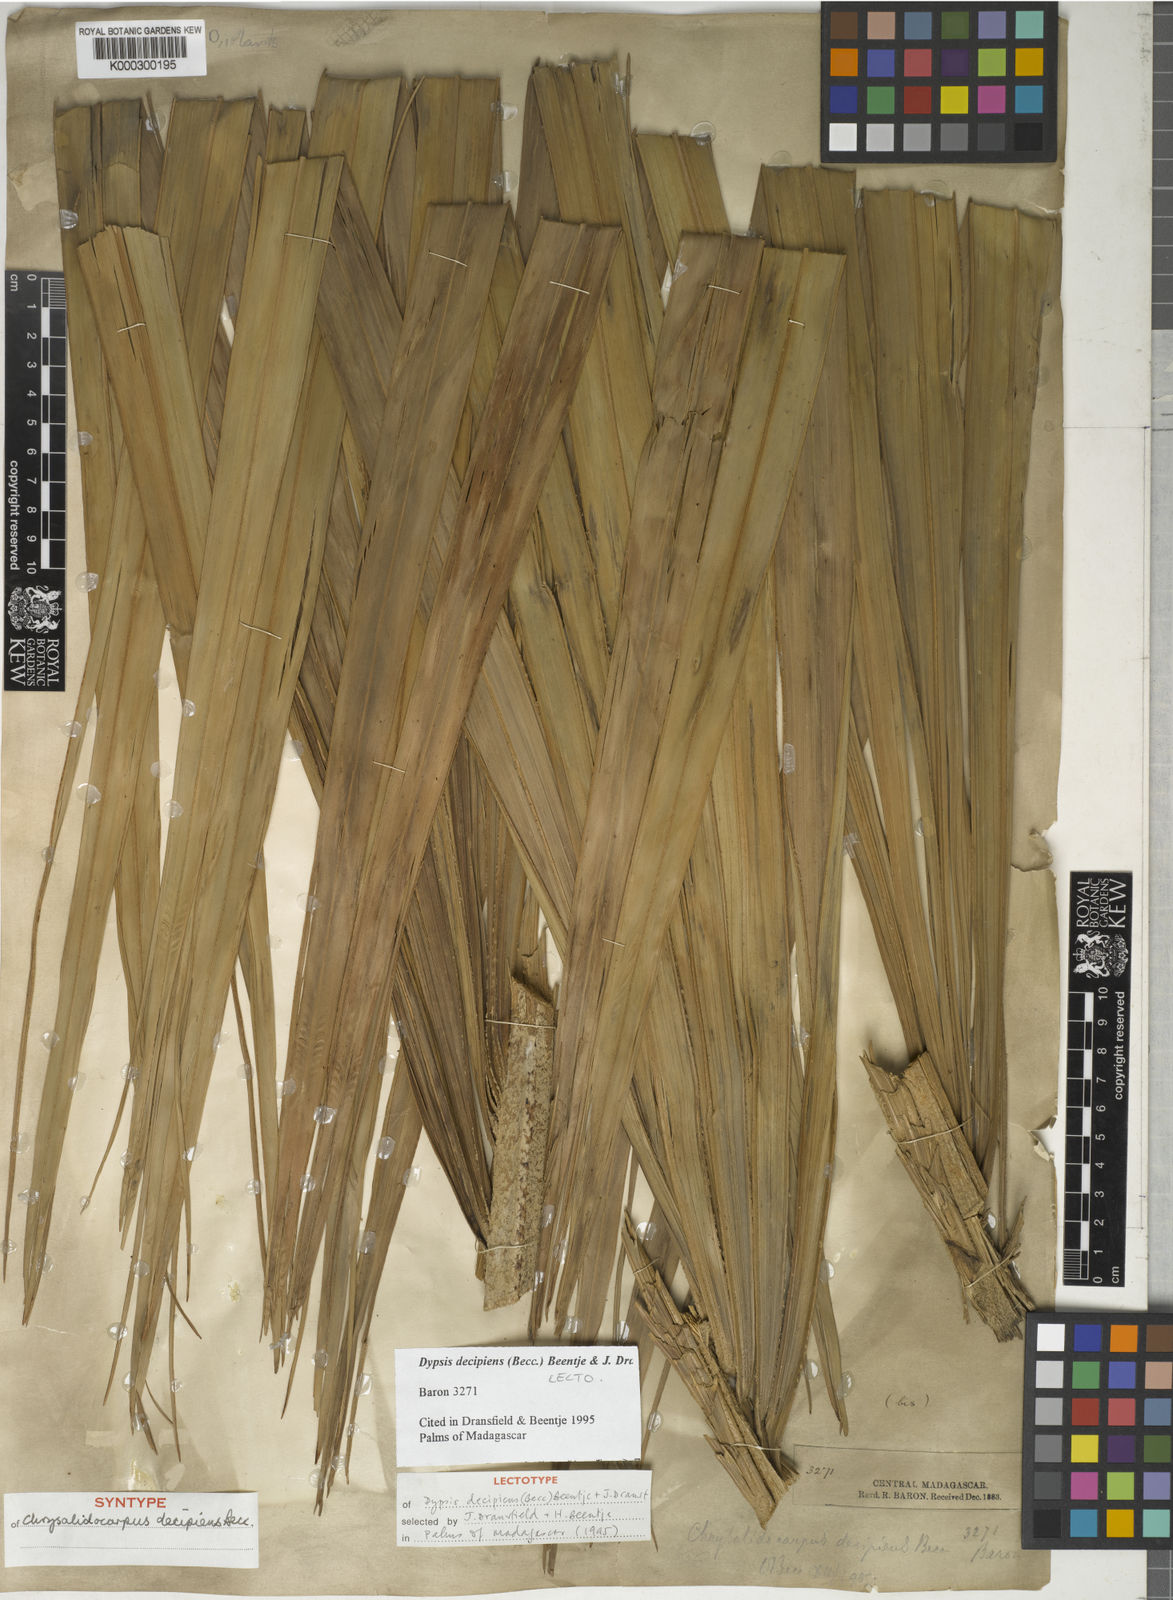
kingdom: Plantae
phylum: Tracheophyta
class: Liliopsida
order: Arecales
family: Arecaceae
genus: Dypsis
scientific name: Dypsis decipiens
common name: Manambe palm
